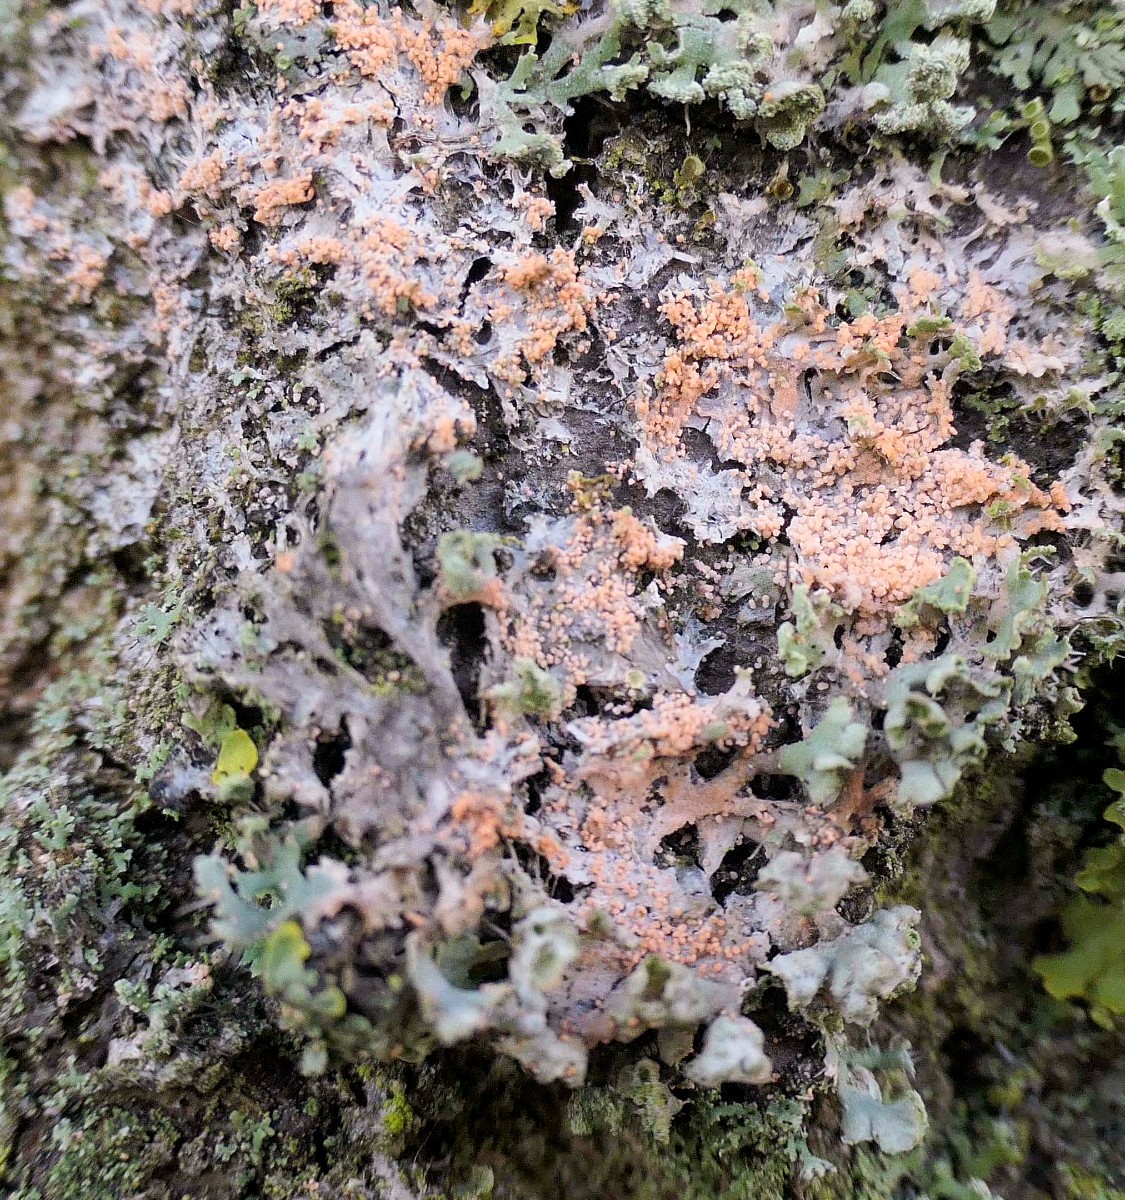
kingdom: Fungi
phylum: Basidiomycota
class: Agaricomycetes
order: Corticiales
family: Corticiaceae
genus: Erythricium
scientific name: Erythricium aurantiacum
